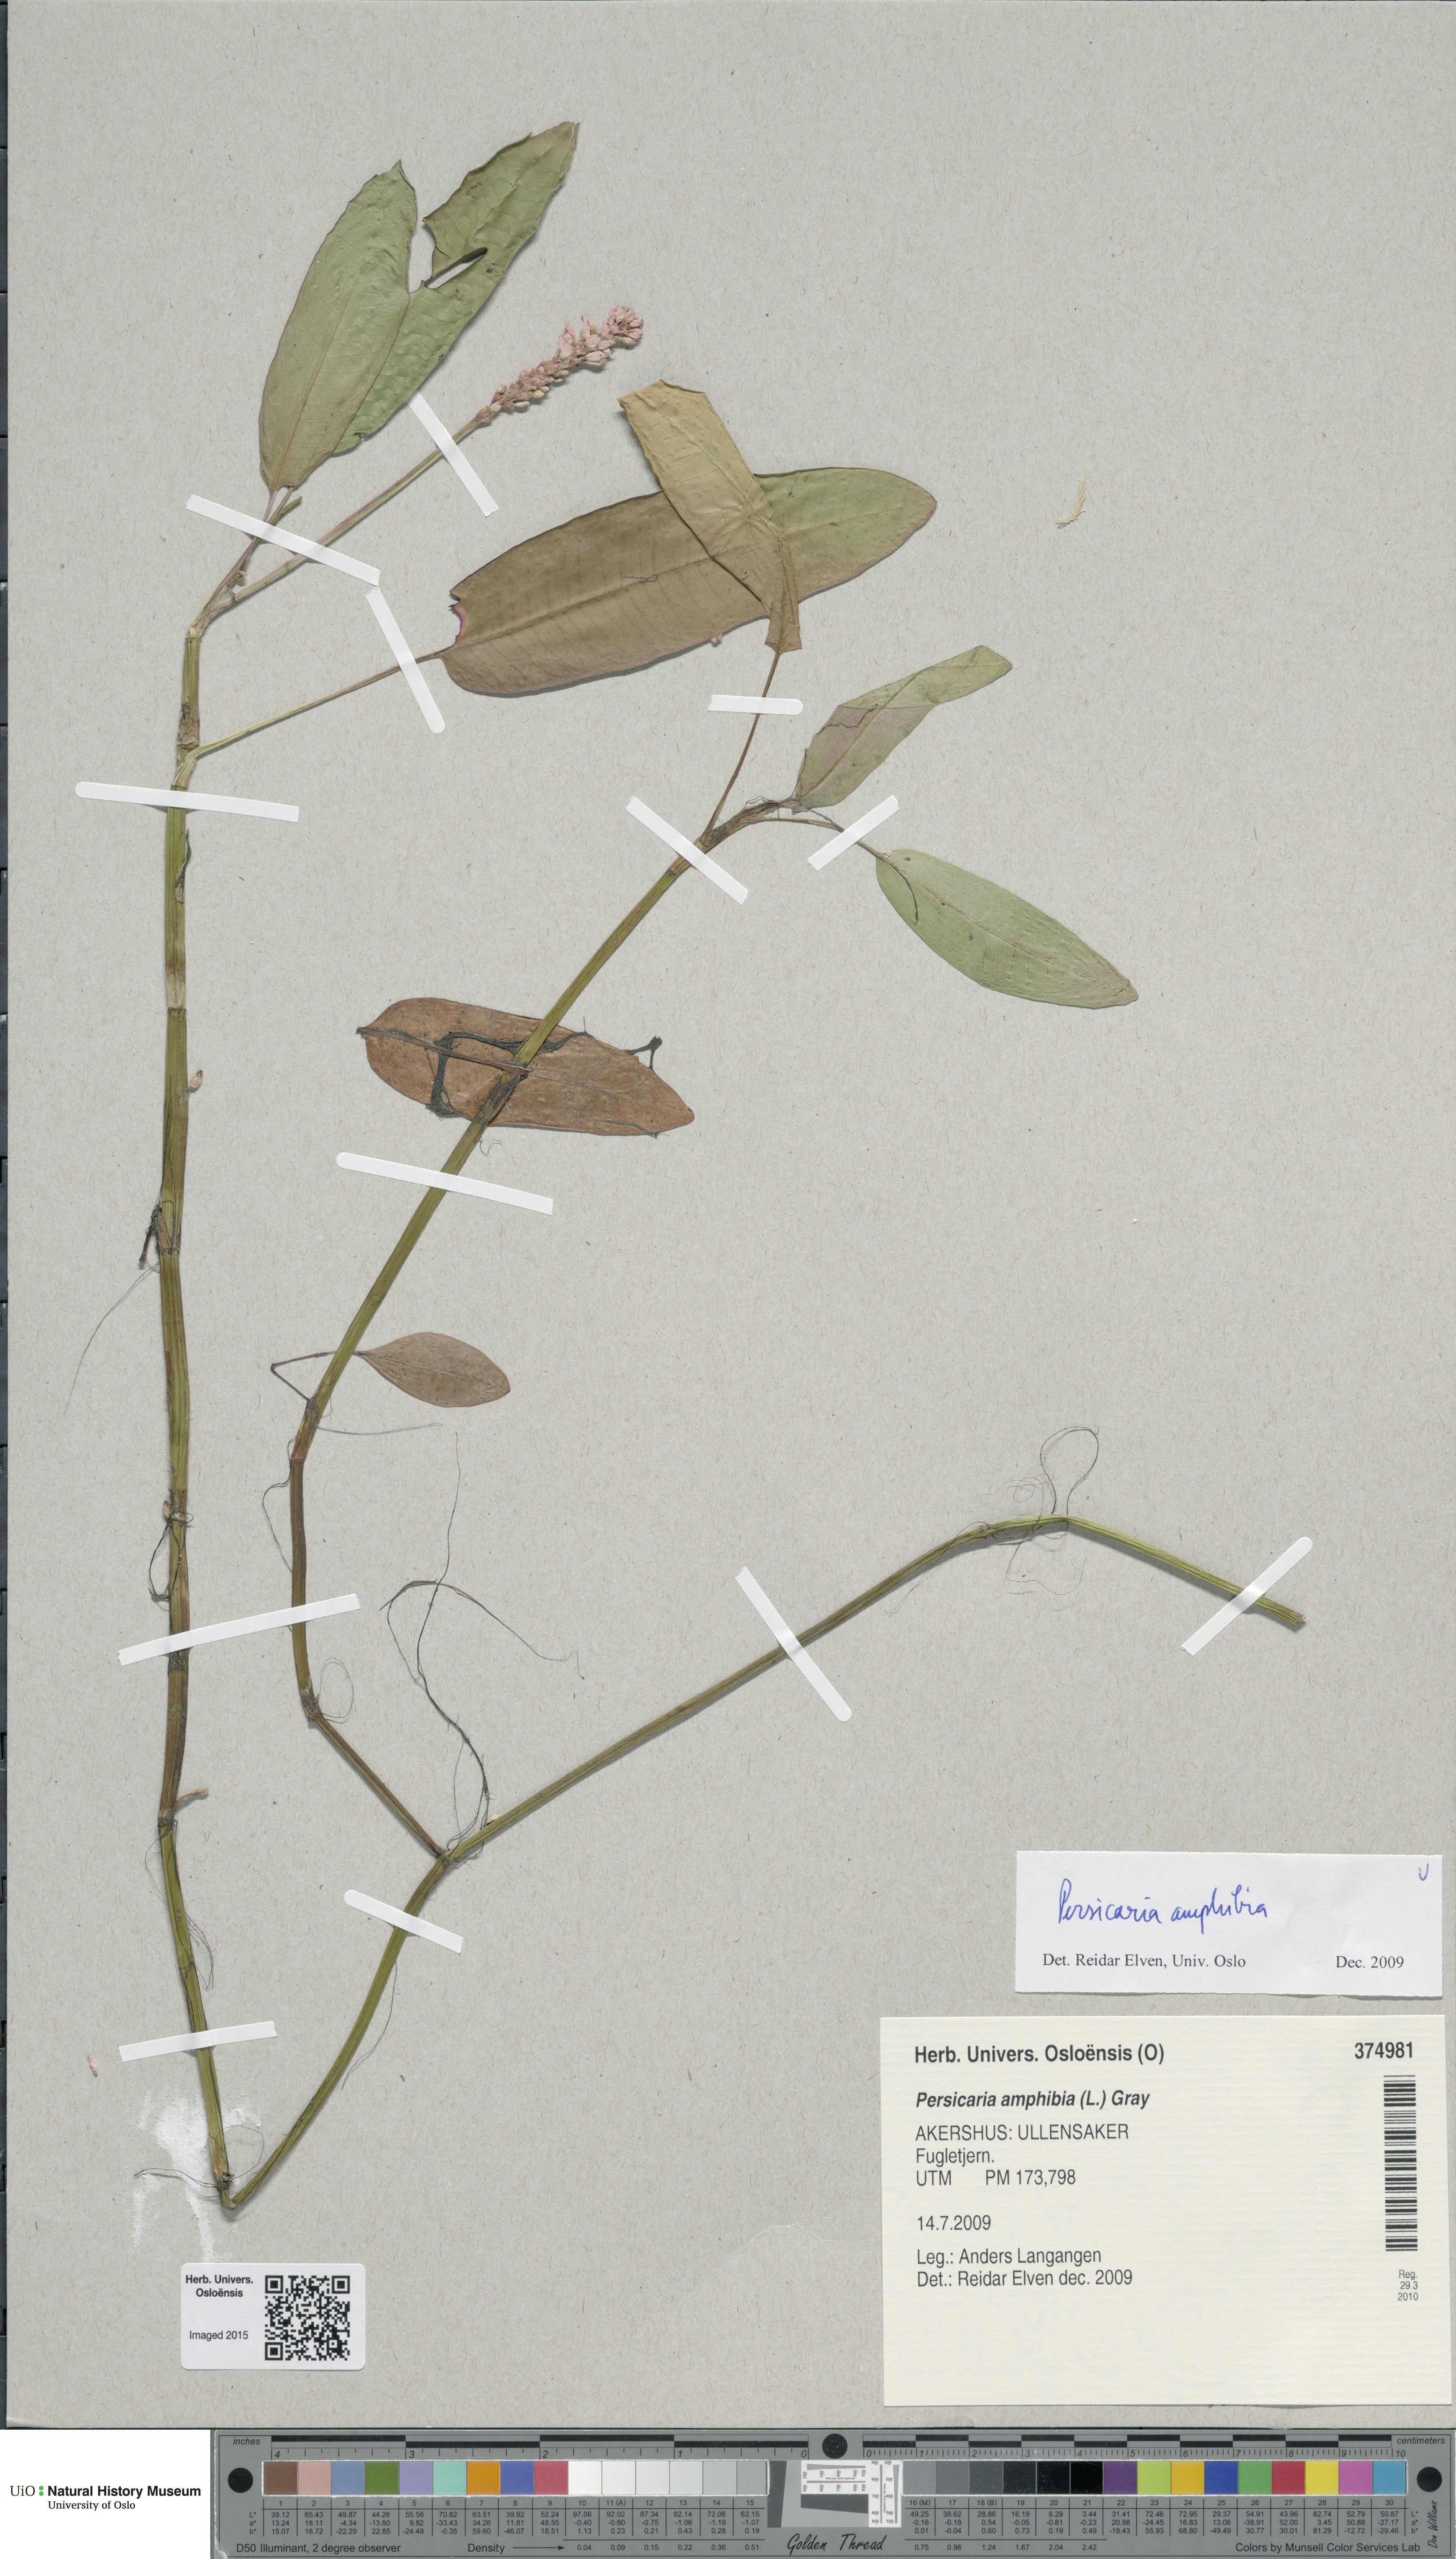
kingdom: Plantae
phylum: Tracheophyta
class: Magnoliopsida
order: Caryophyllales
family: Polygonaceae
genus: Persicaria
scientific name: Persicaria amphibia
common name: Amphibious bistort
